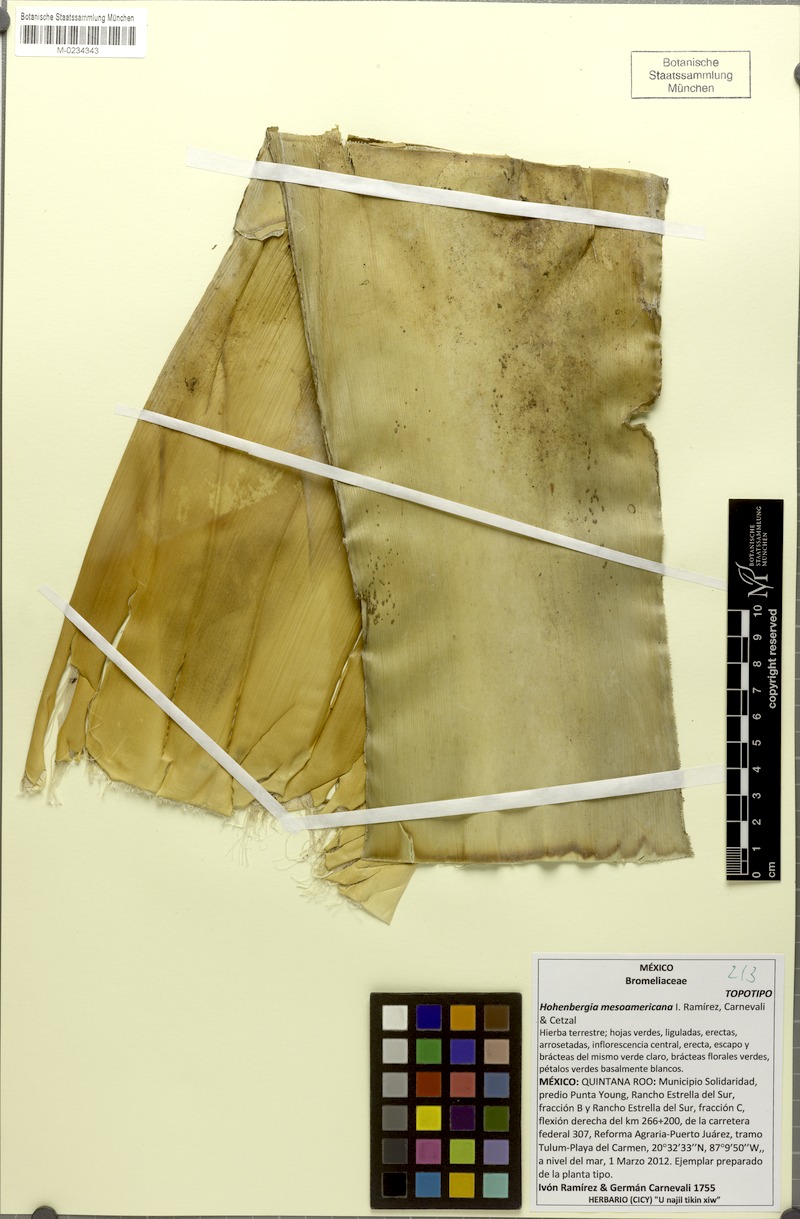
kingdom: Plantae
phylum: Tracheophyta
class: Liliopsida
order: Poales
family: Bromeliaceae
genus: Wittmackia
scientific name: Wittmackia mesoamericana
